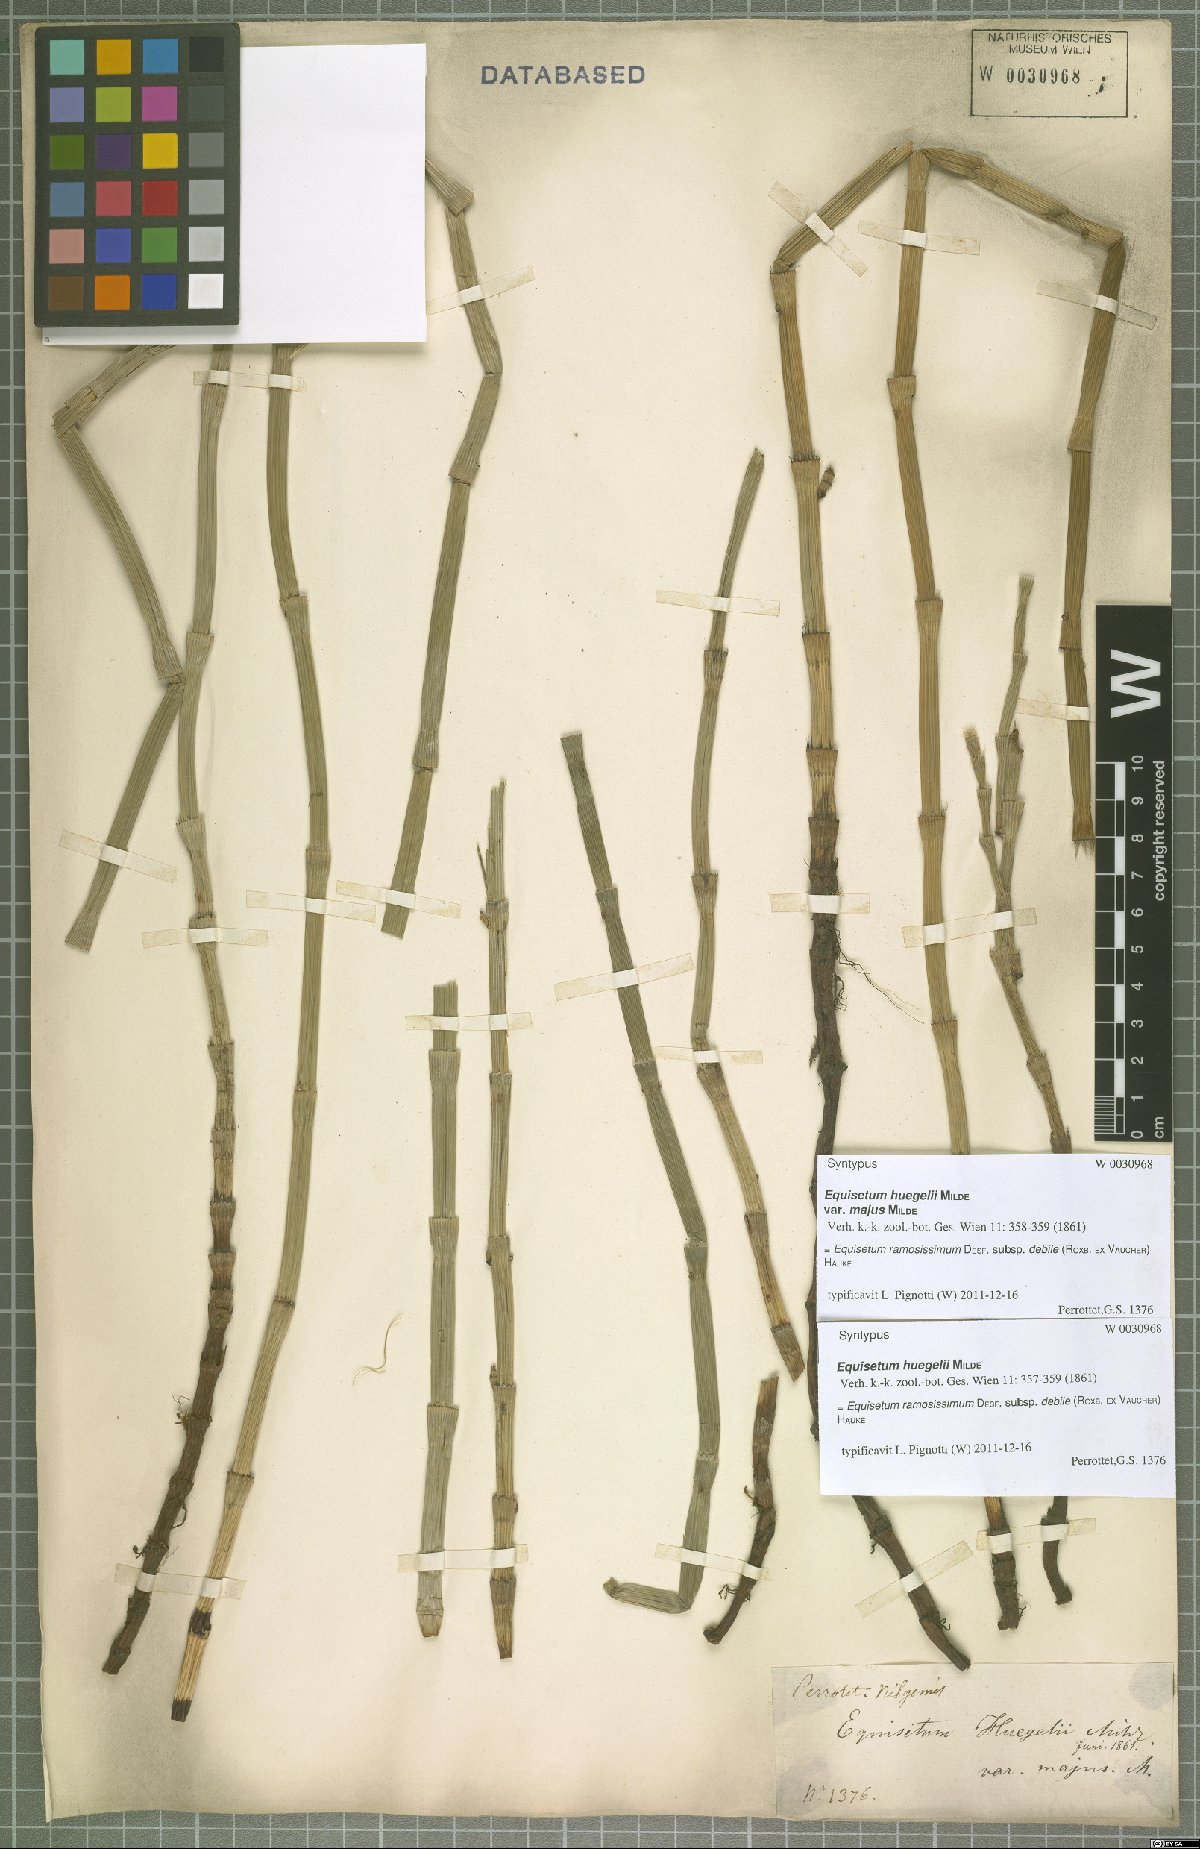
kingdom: Plantae
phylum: Tracheophyta
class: Polypodiopsida
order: Equisetales
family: Equisetaceae
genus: Equisetum
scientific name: Equisetum ramosissimum
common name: Branched horsetail
